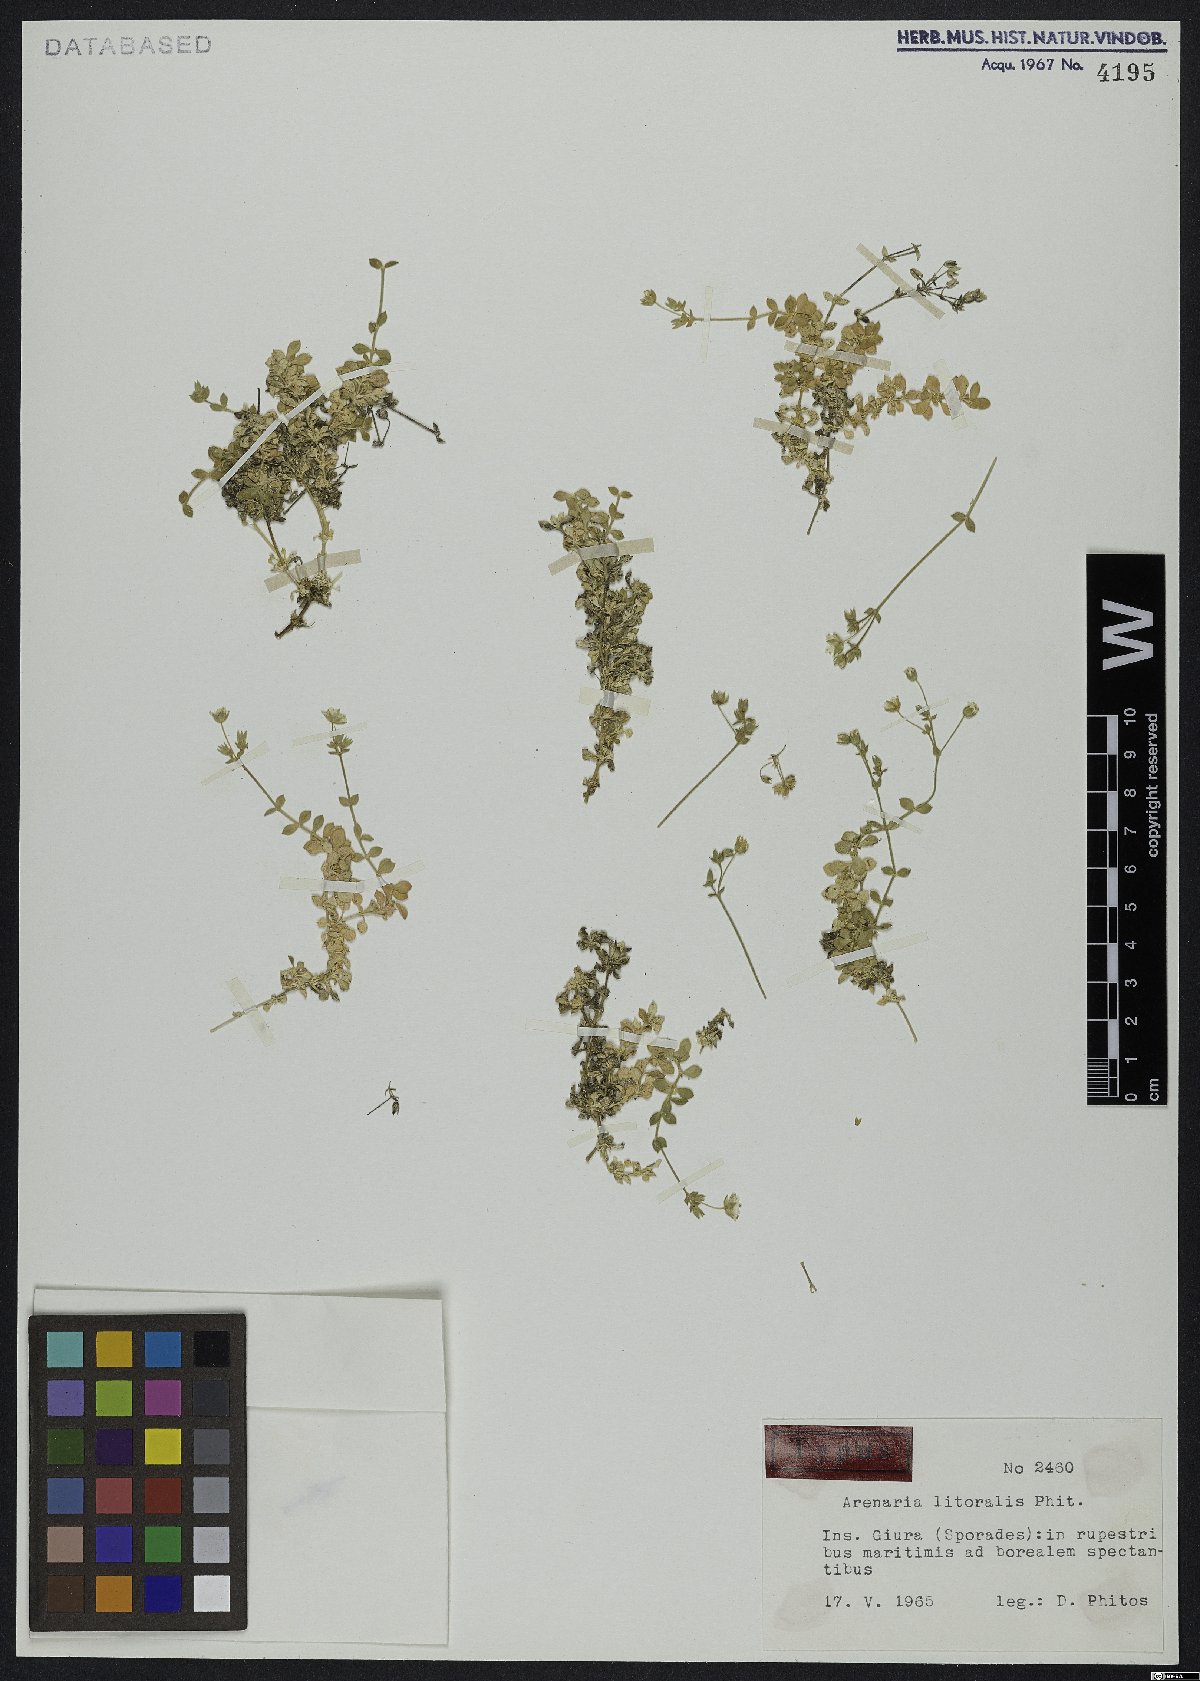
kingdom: Plantae
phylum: Tracheophyta
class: Magnoliopsida
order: Caryophyllales
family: Caryophyllaceae
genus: Arenaria
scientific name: Arenaria phitosiana
